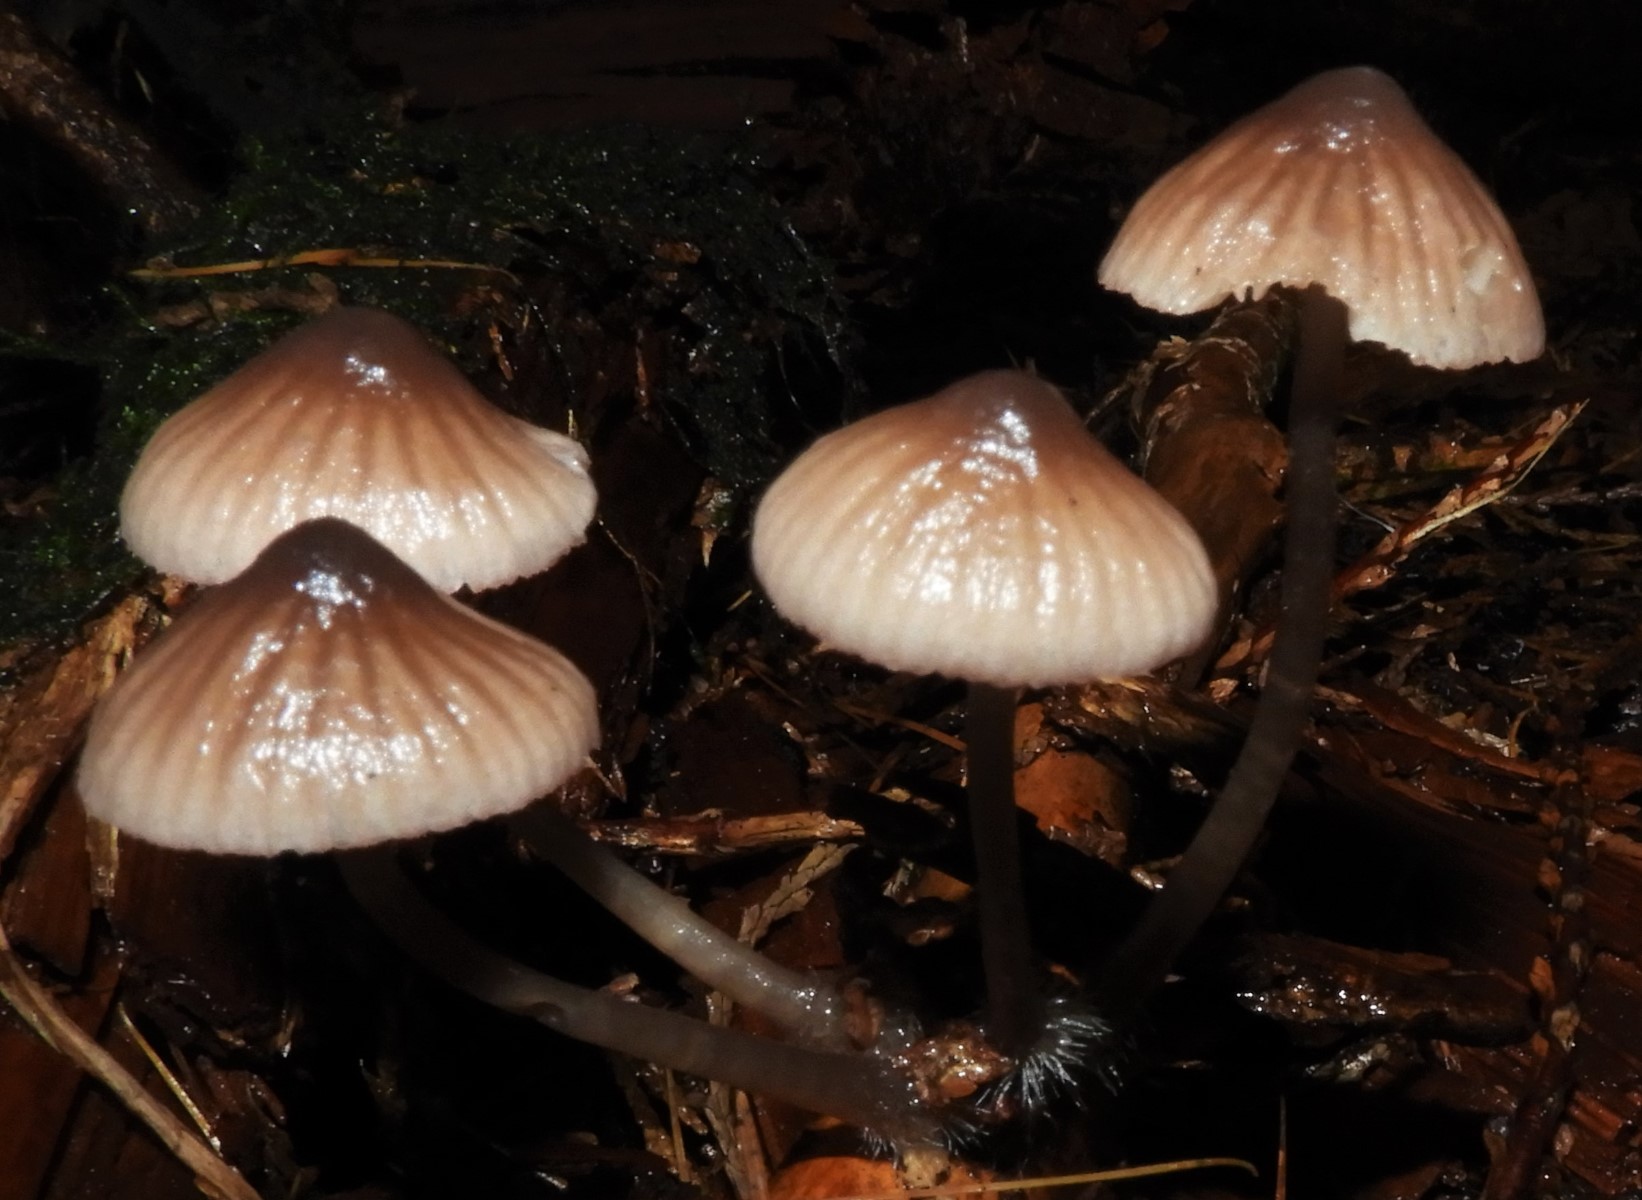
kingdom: Fungi
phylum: Basidiomycota
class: Agaricomycetes
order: Agaricales
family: Mycenaceae
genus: Mycena
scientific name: Mycena
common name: huesvamp
